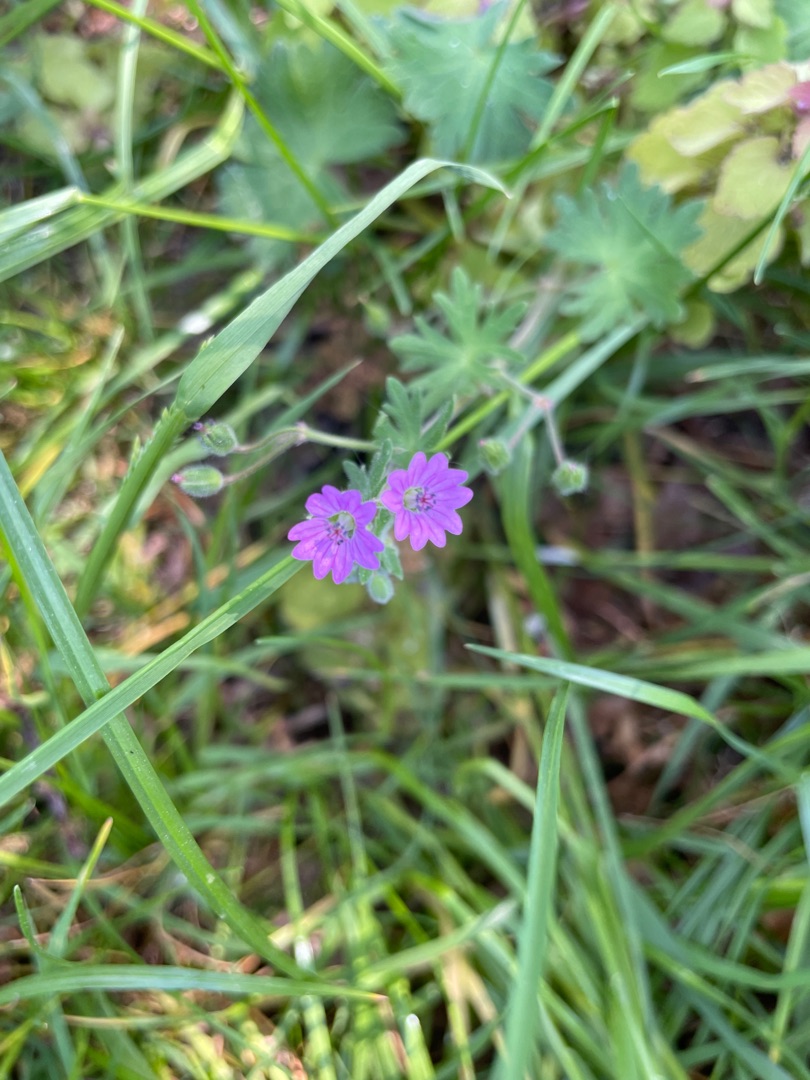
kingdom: Plantae
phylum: Tracheophyta
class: Magnoliopsida
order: Geraniales
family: Geraniaceae
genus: Geranium
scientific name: Geranium pyrenaicum
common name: Pyrenæisk storkenæb
